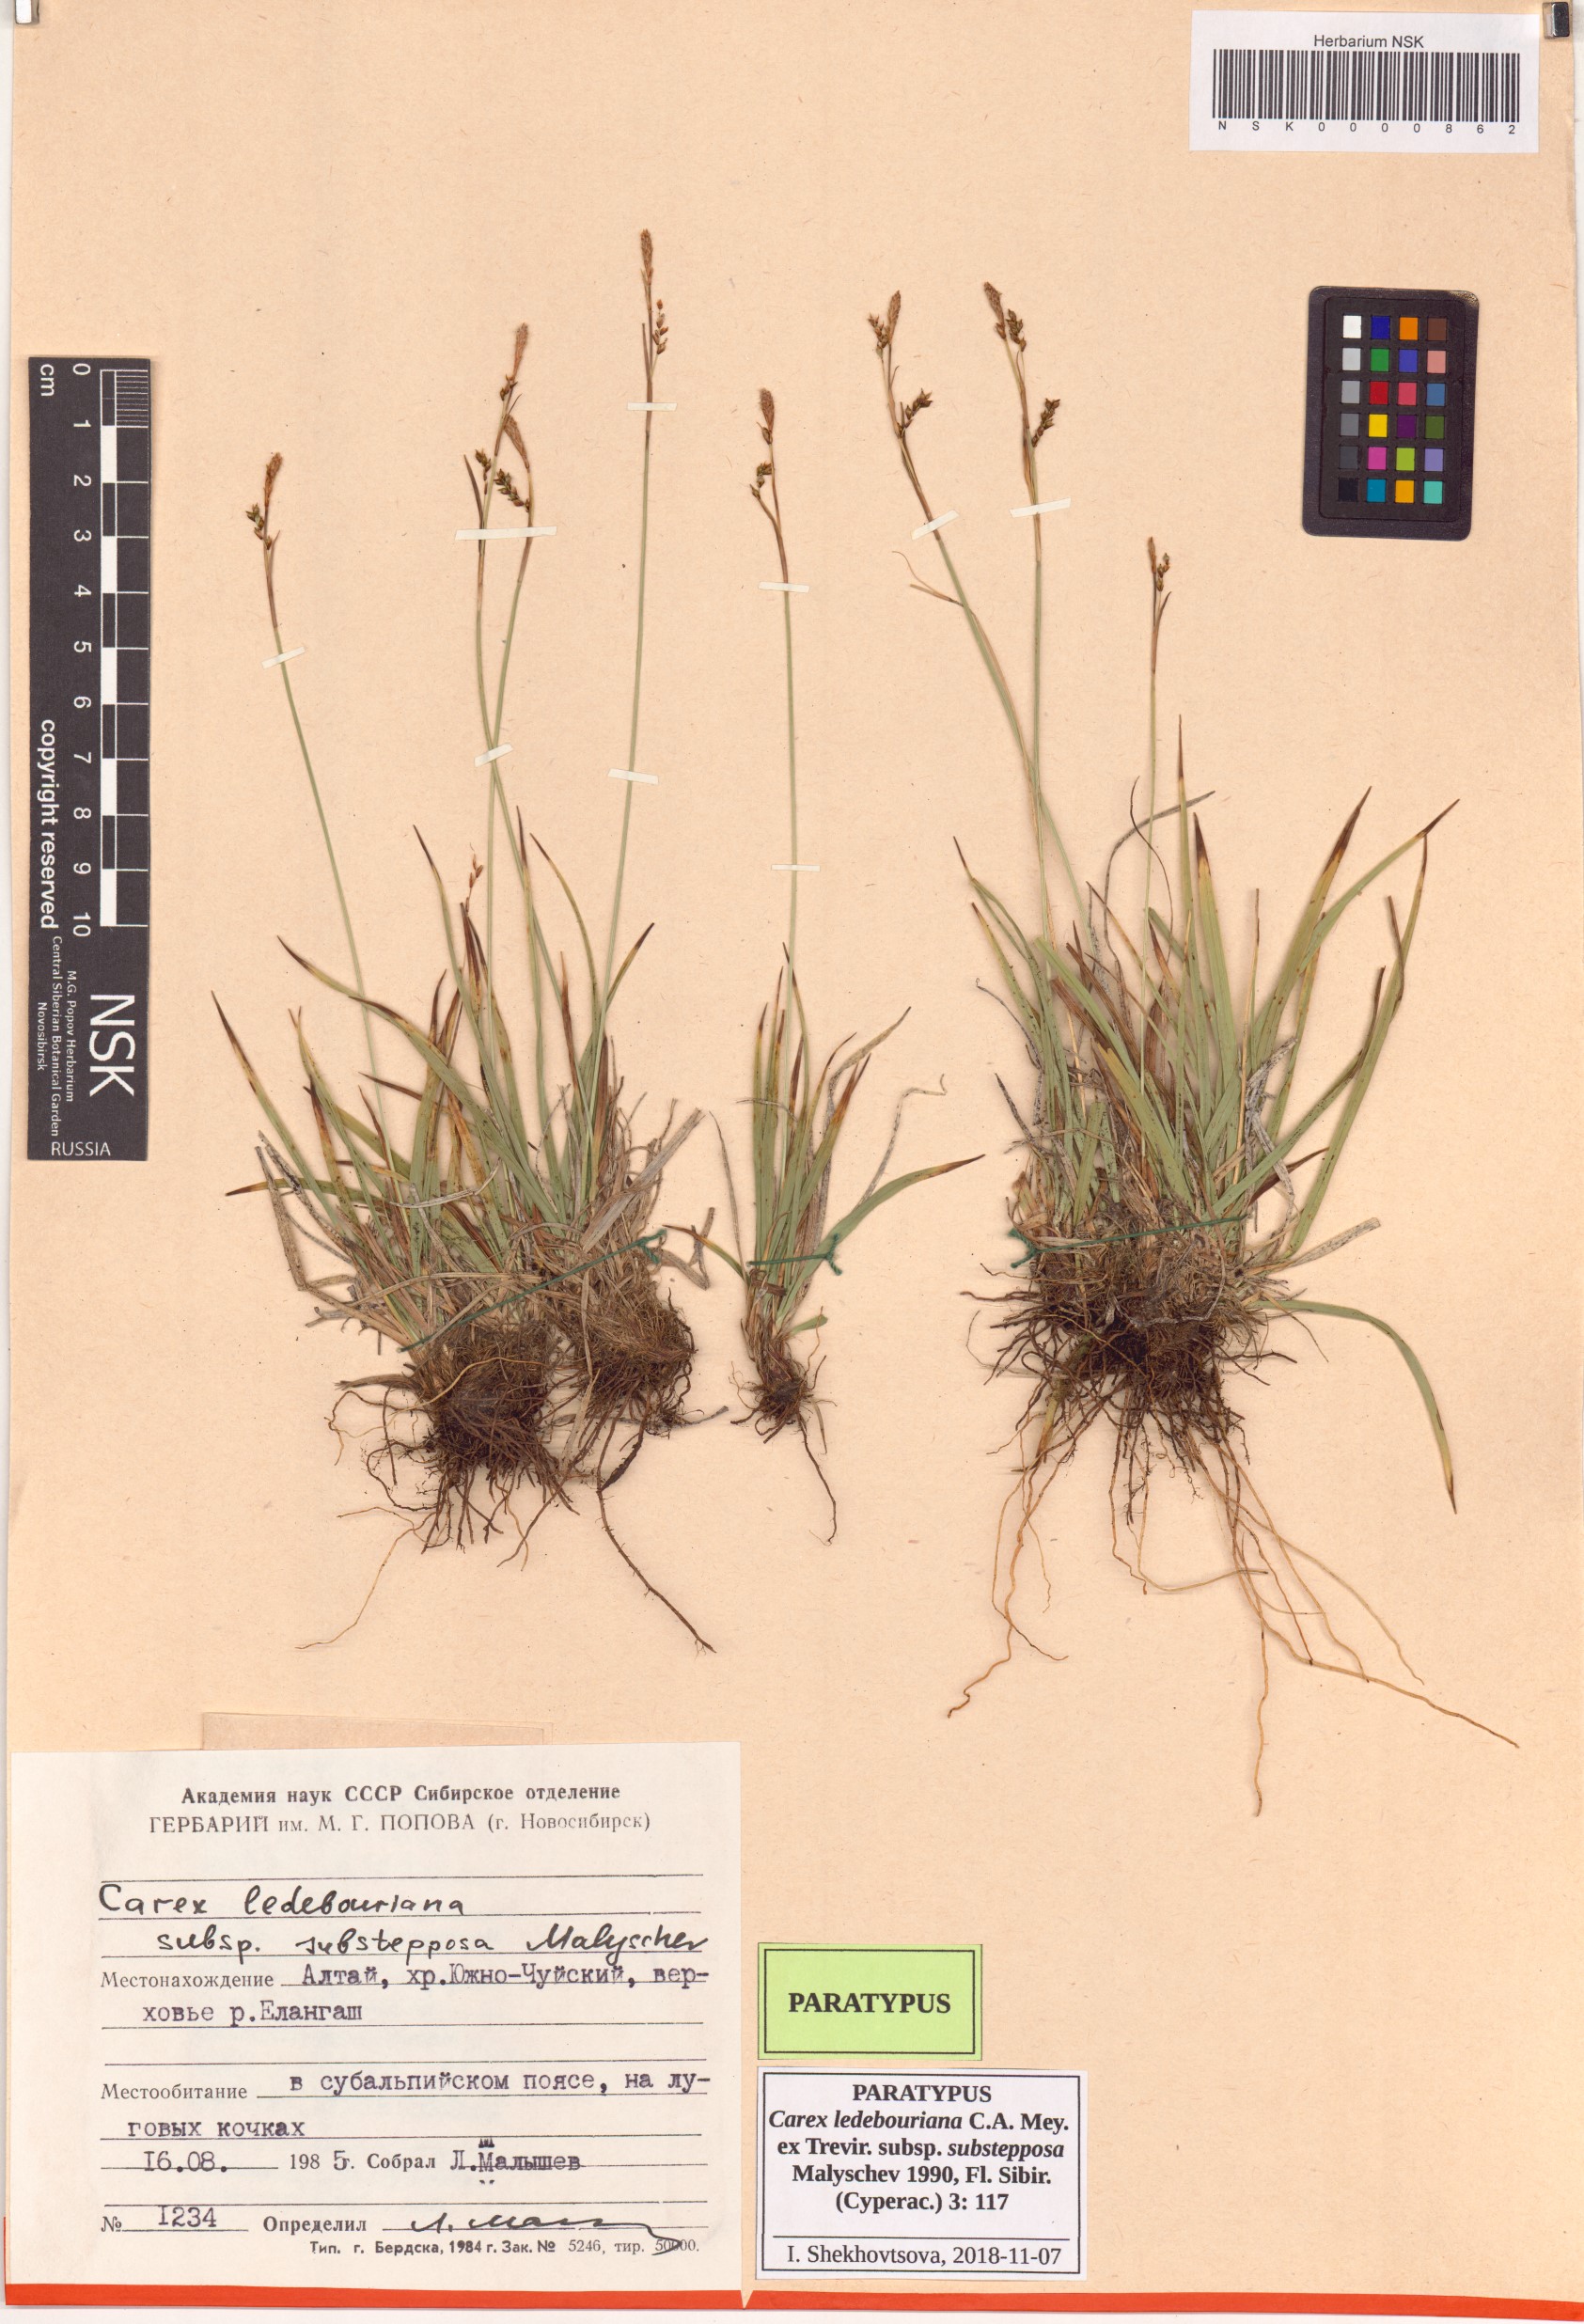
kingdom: Plantae
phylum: Tracheophyta
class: Liliopsida
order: Poales
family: Cyperaceae
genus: Carex
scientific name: Carex ledebouriana
